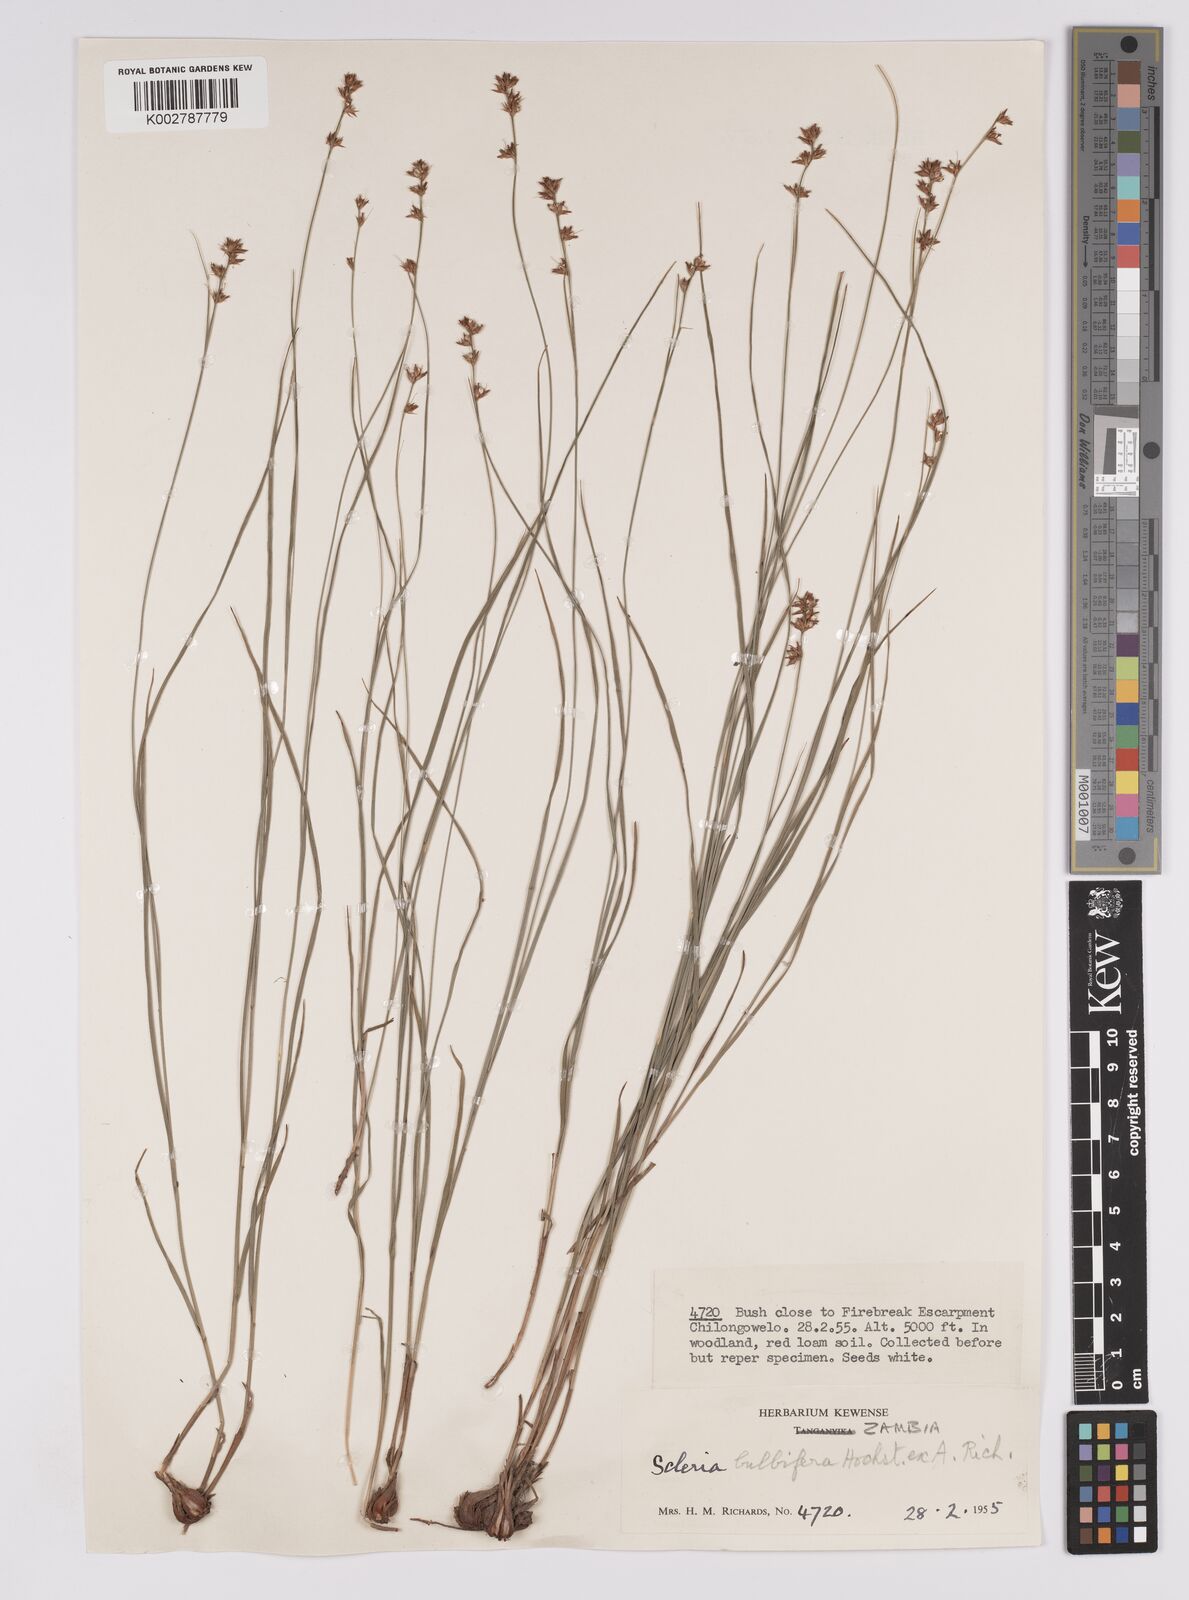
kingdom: Plantae
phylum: Tracheophyta
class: Liliopsida
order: Poales
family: Cyperaceae
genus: Scleria
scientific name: Scleria bulbifera
